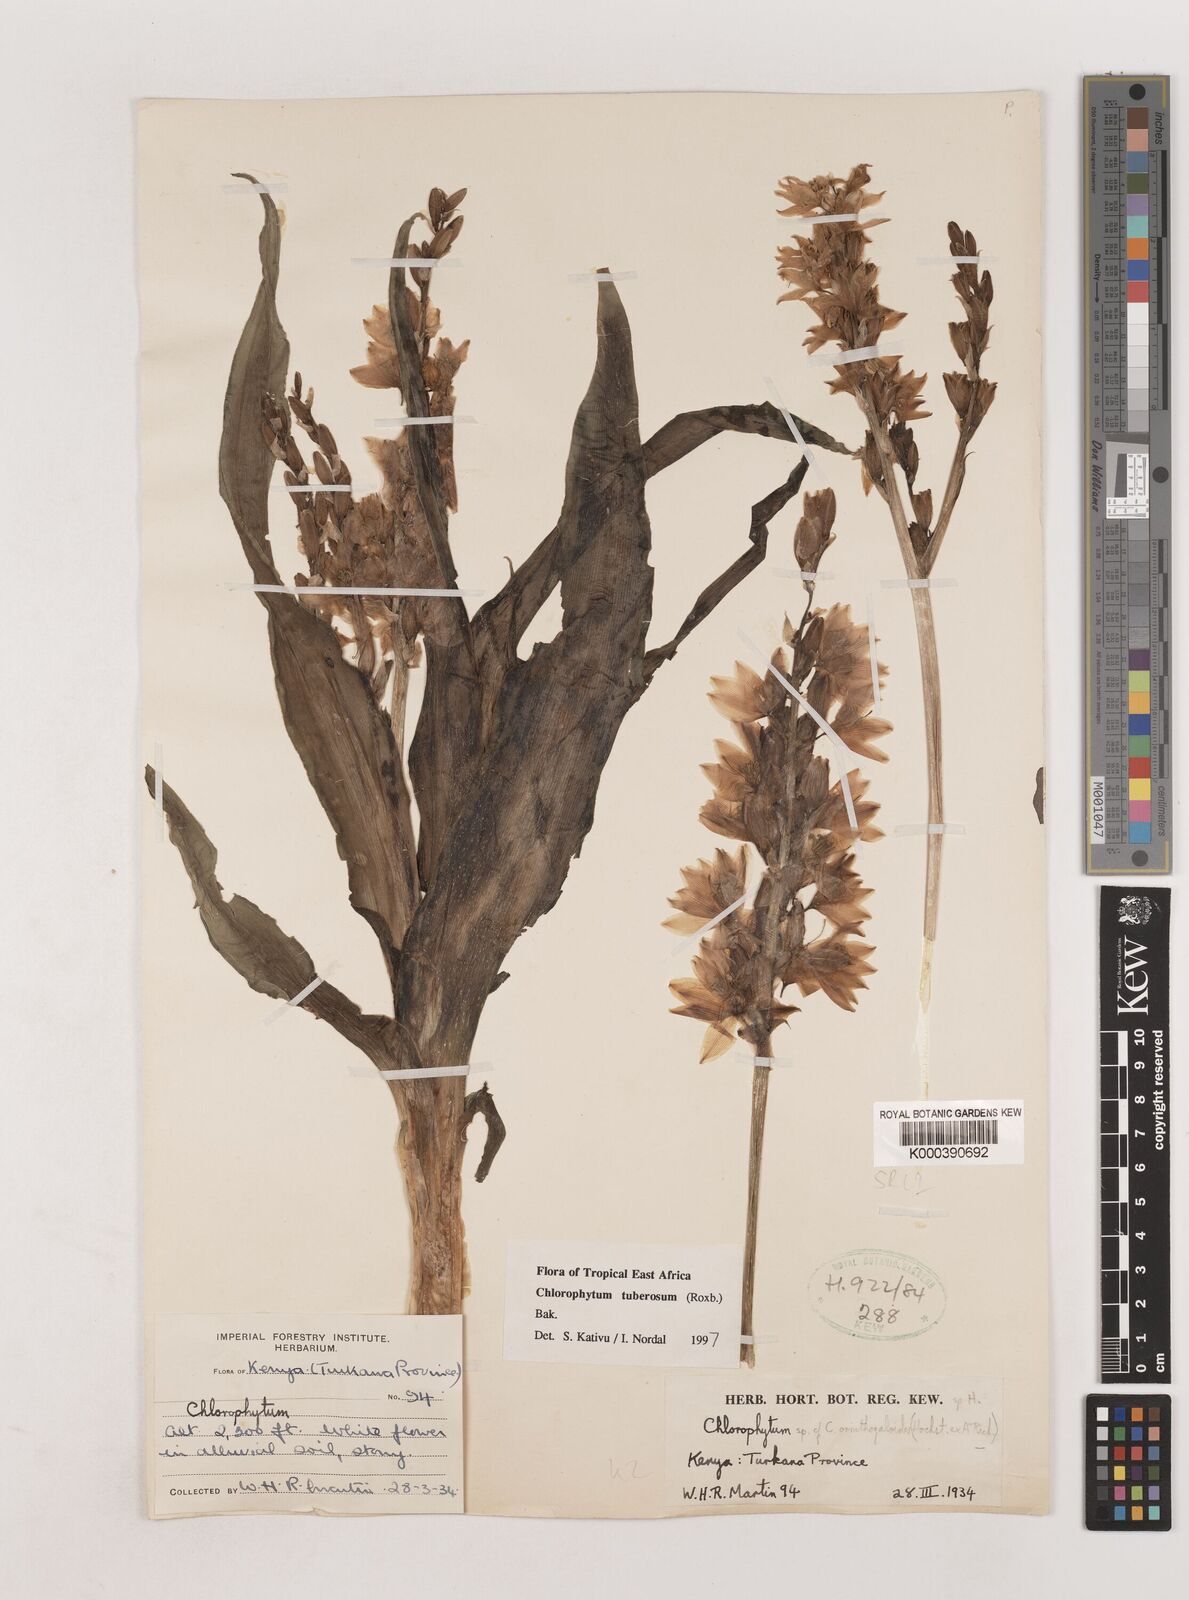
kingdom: Plantae
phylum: Tracheophyta
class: Liliopsida
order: Asparagales
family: Asparagaceae
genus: Chlorophytum
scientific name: Chlorophytum tuberosum
